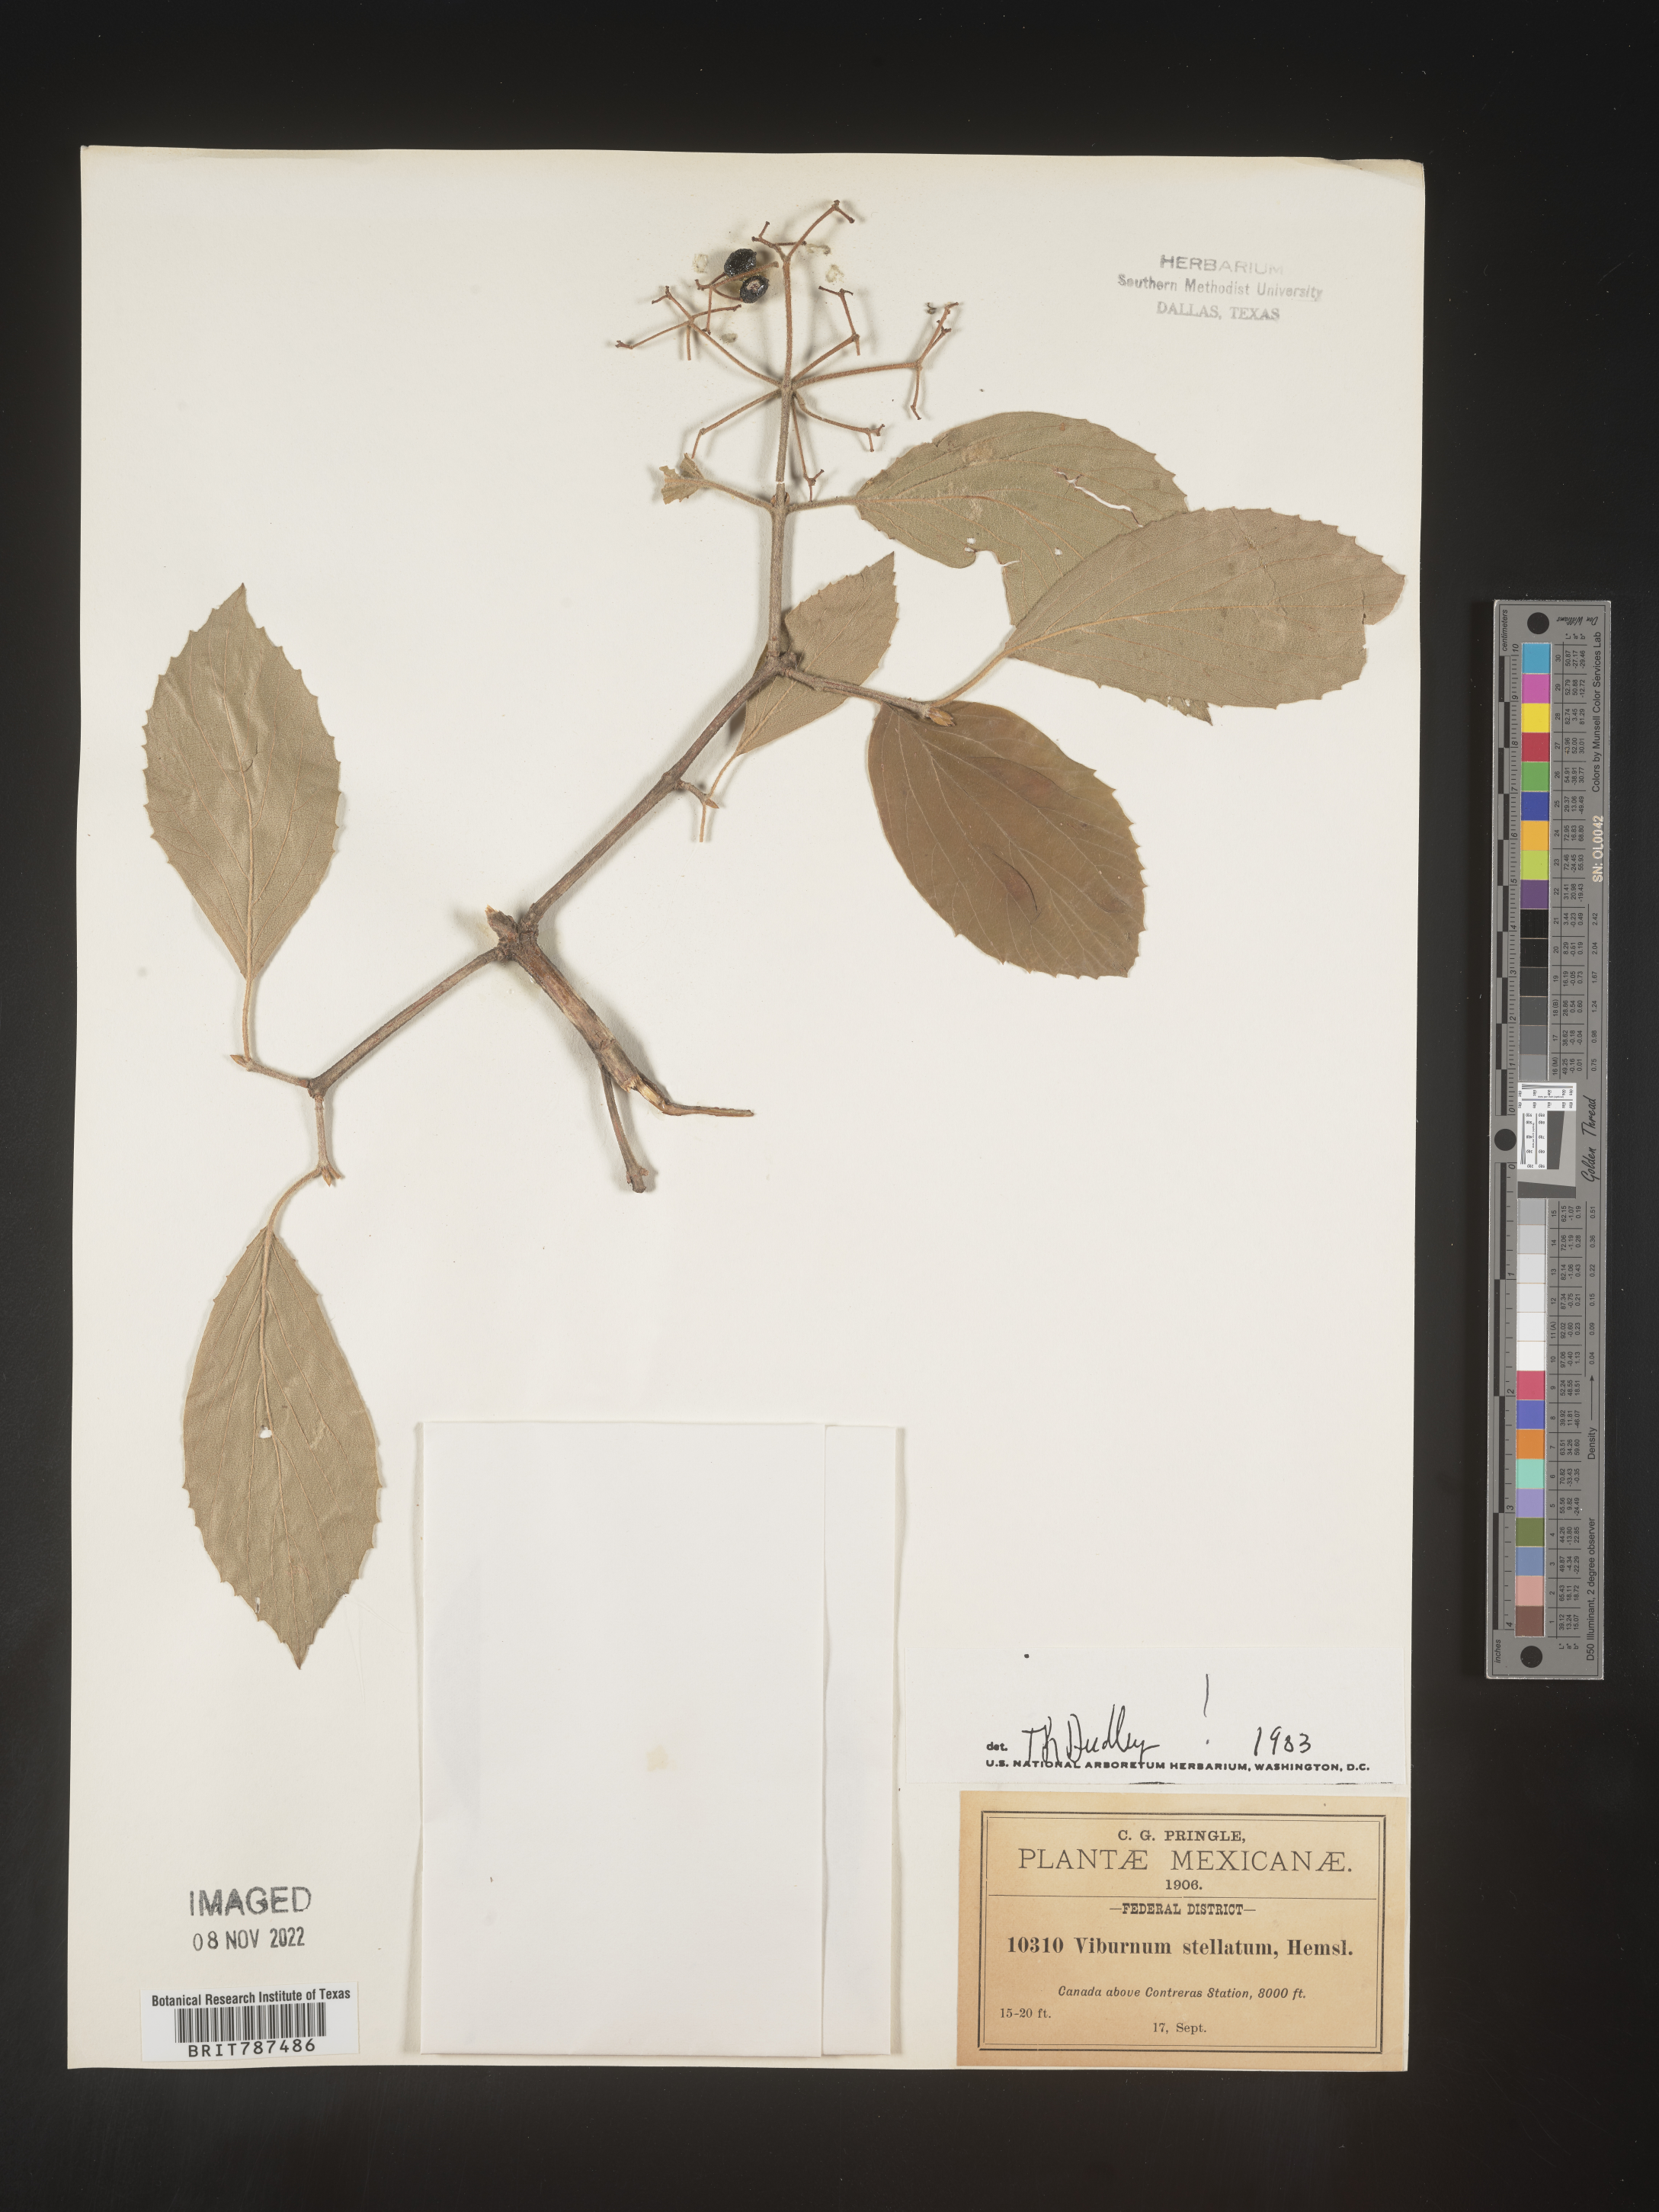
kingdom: Plantae
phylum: Tracheophyta
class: Magnoliopsida
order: Dipsacales
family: Viburnaceae
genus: Viburnum
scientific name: Viburnum
